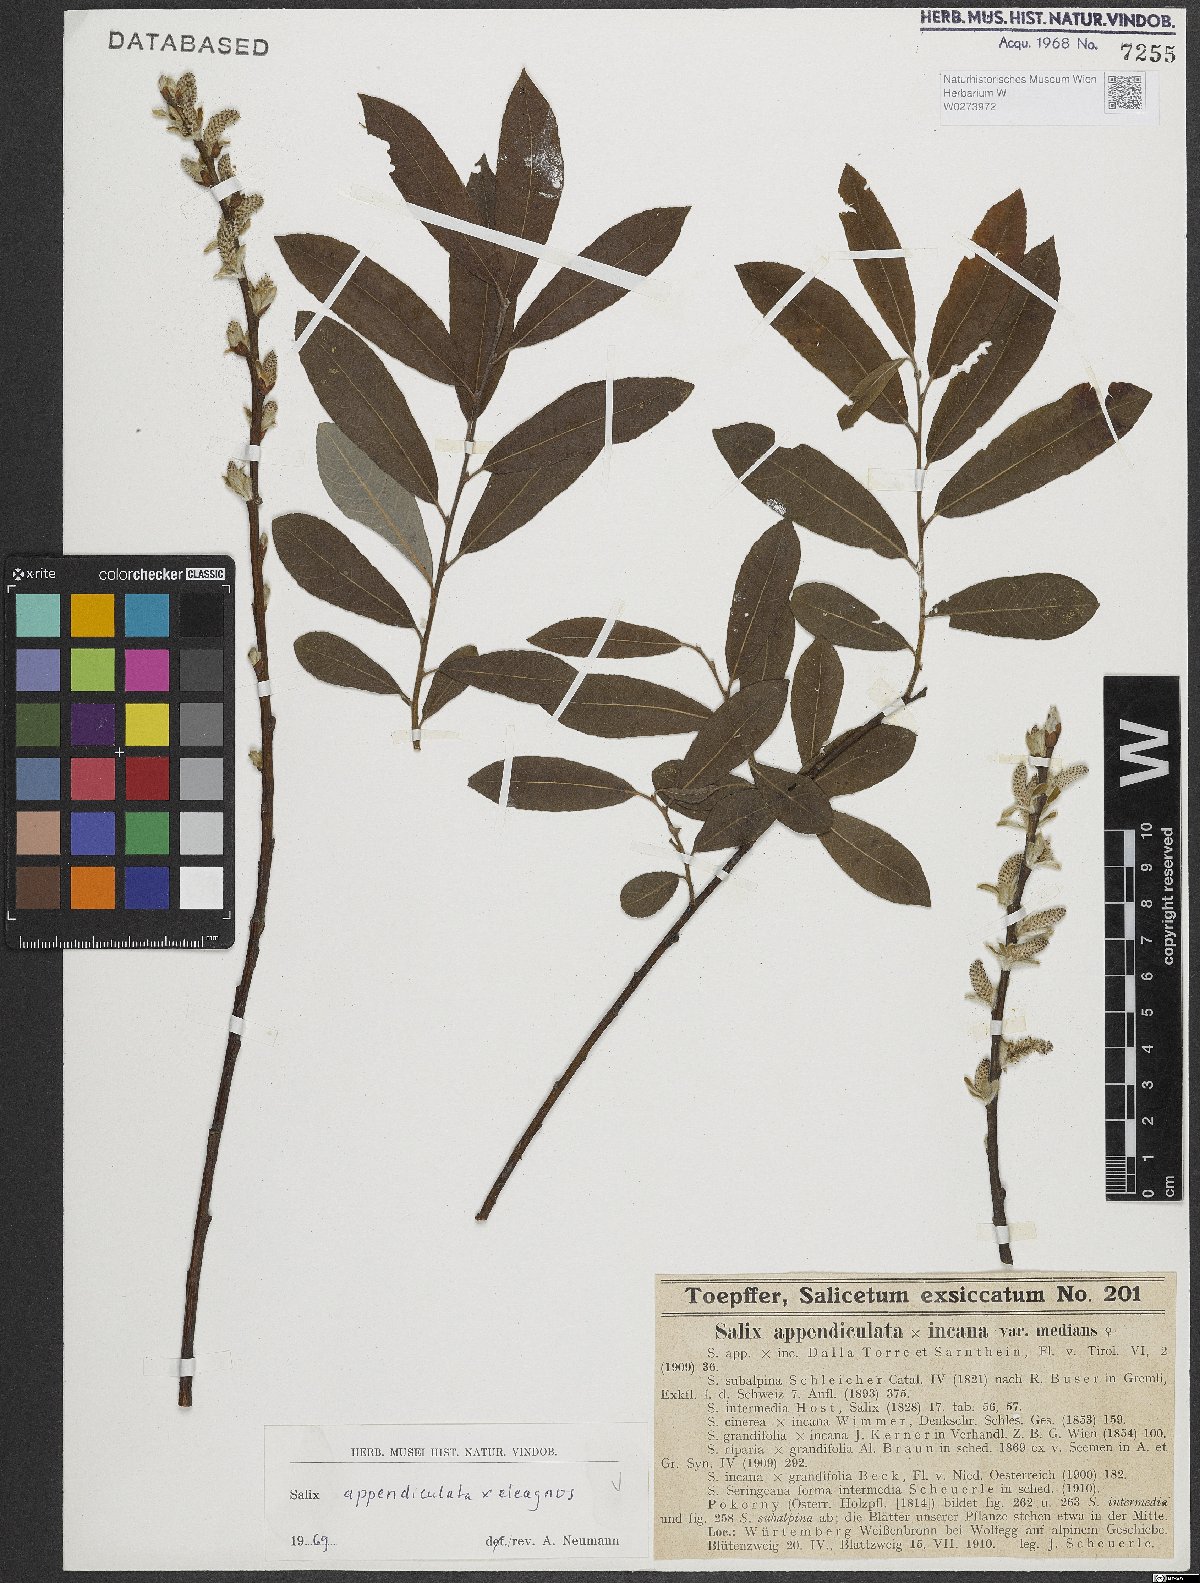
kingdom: Plantae
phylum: Tracheophyta
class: Magnoliopsida
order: Malpighiales
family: Salicaceae
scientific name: Salicaceae
